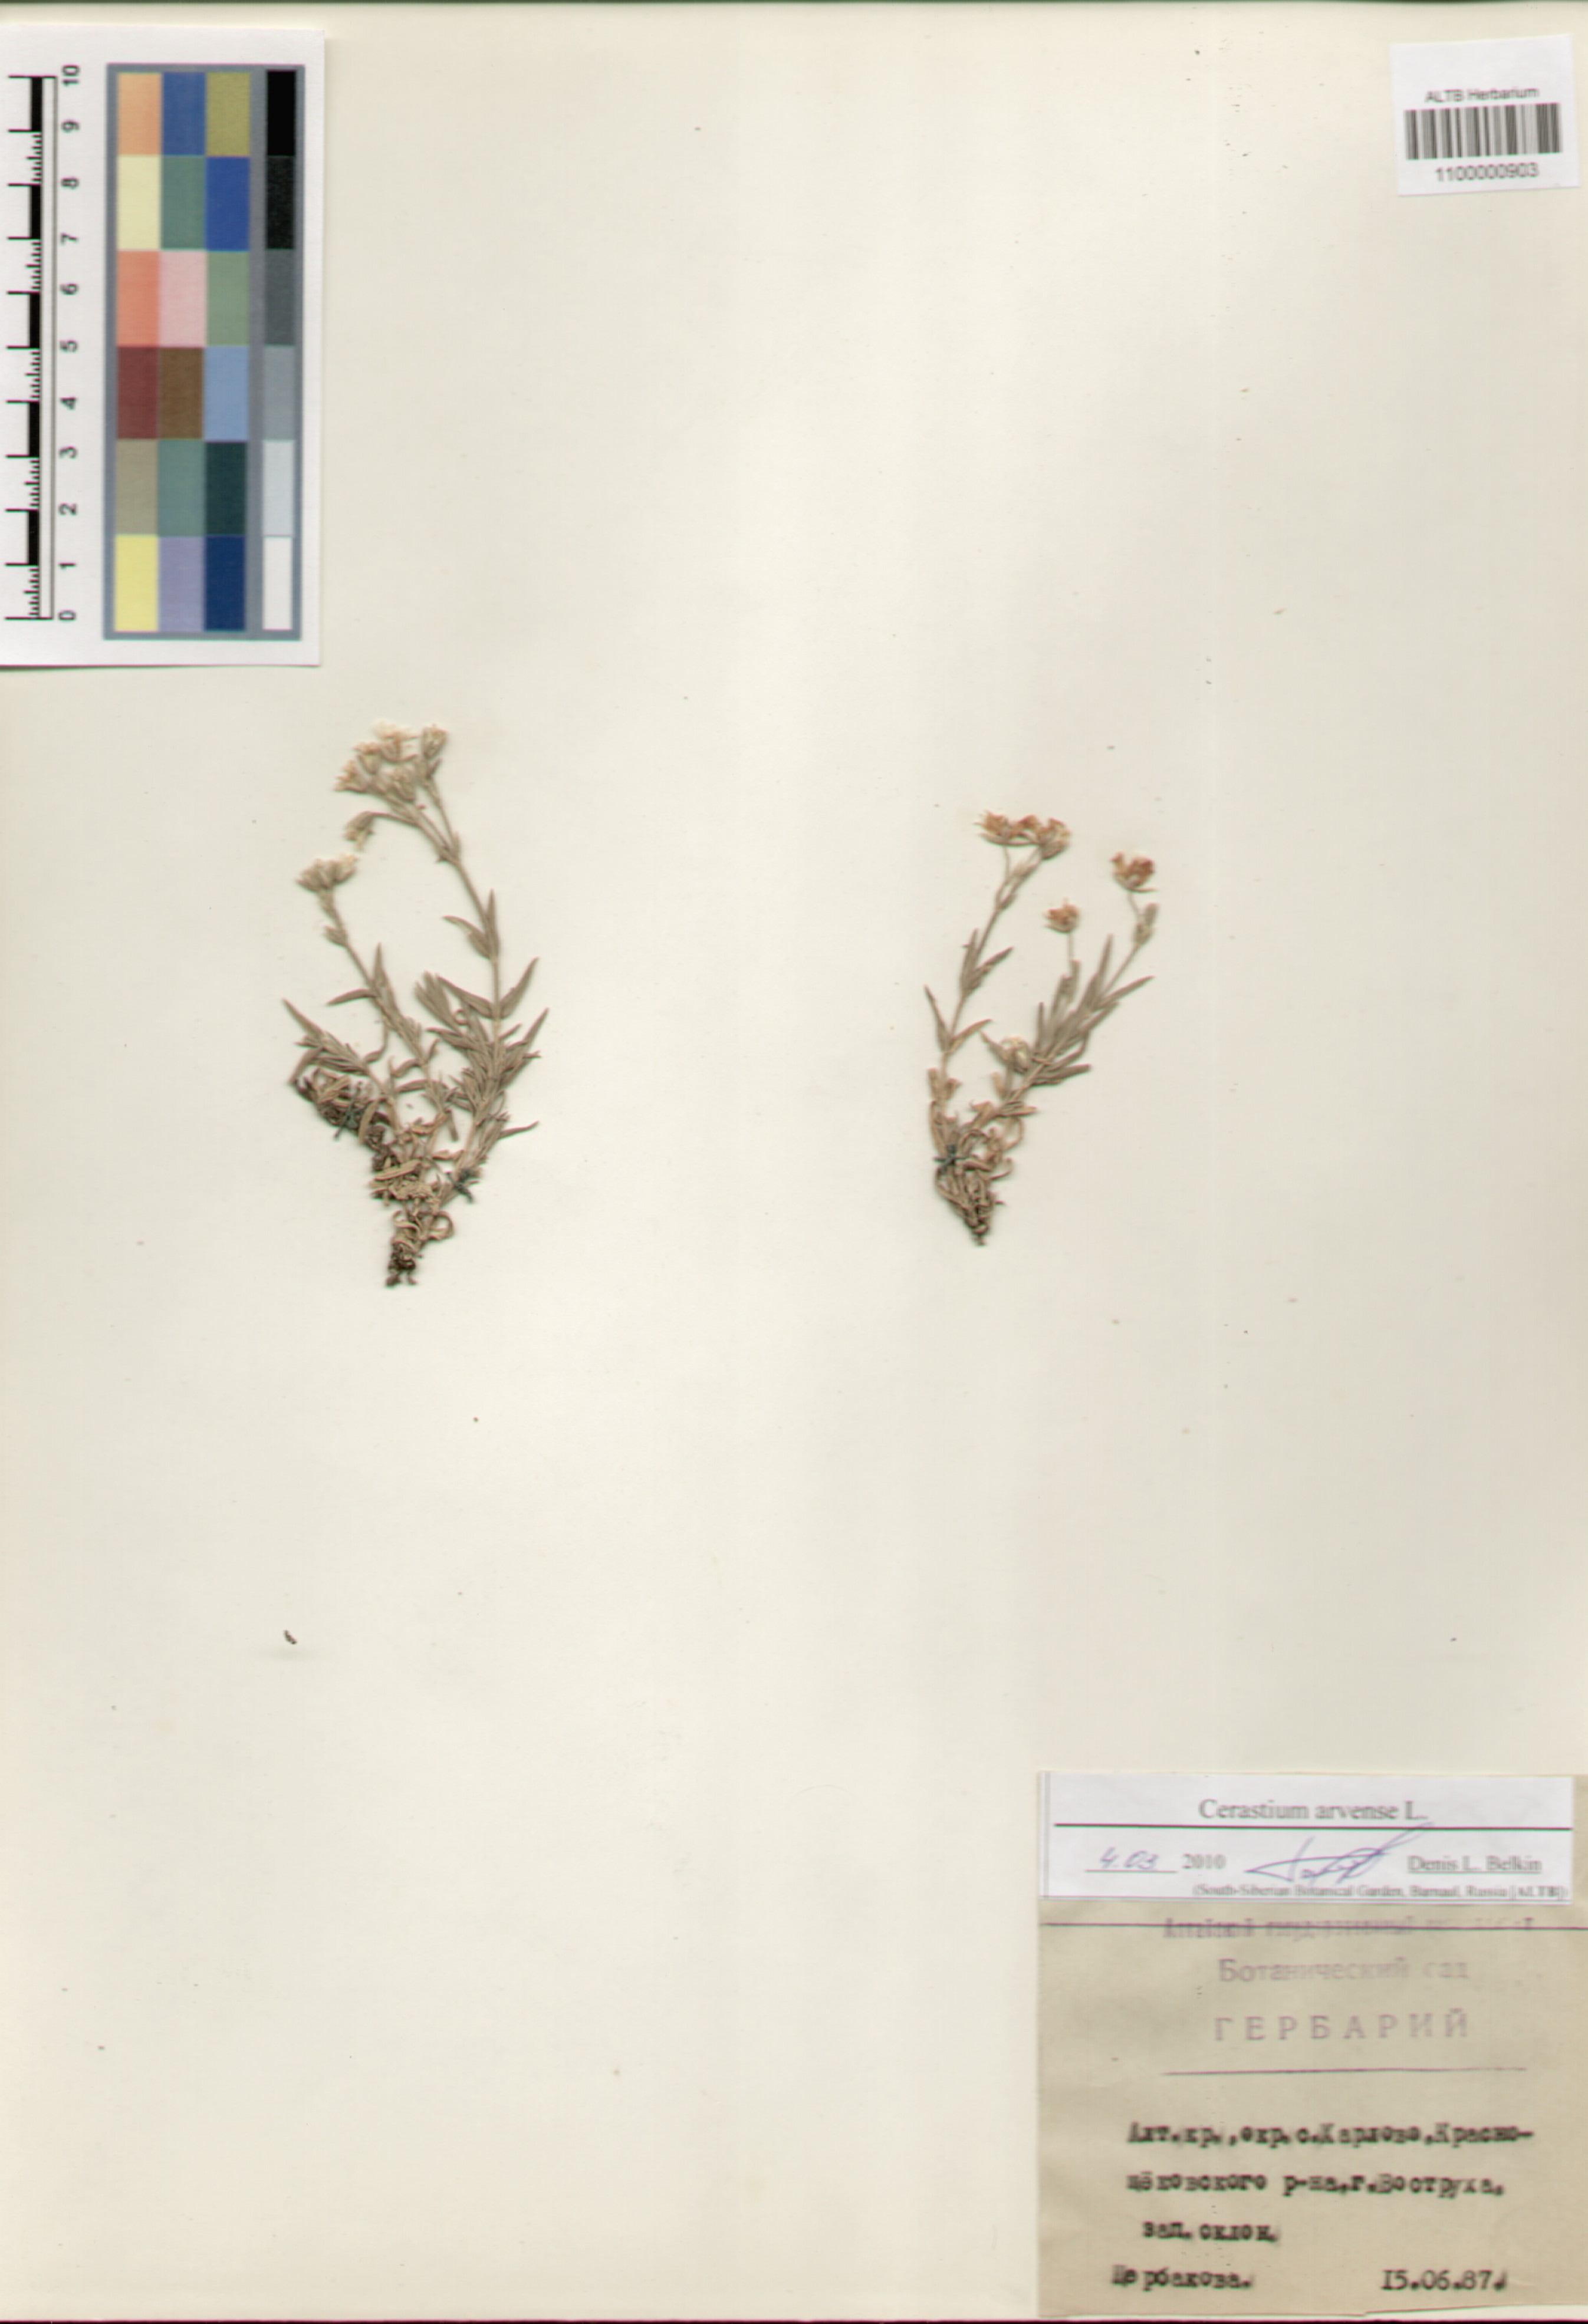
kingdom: Plantae
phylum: Tracheophyta
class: Magnoliopsida
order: Caryophyllales
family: Caryophyllaceae
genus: Cerastium
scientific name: Cerastium arvense
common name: Field mouse-ear
